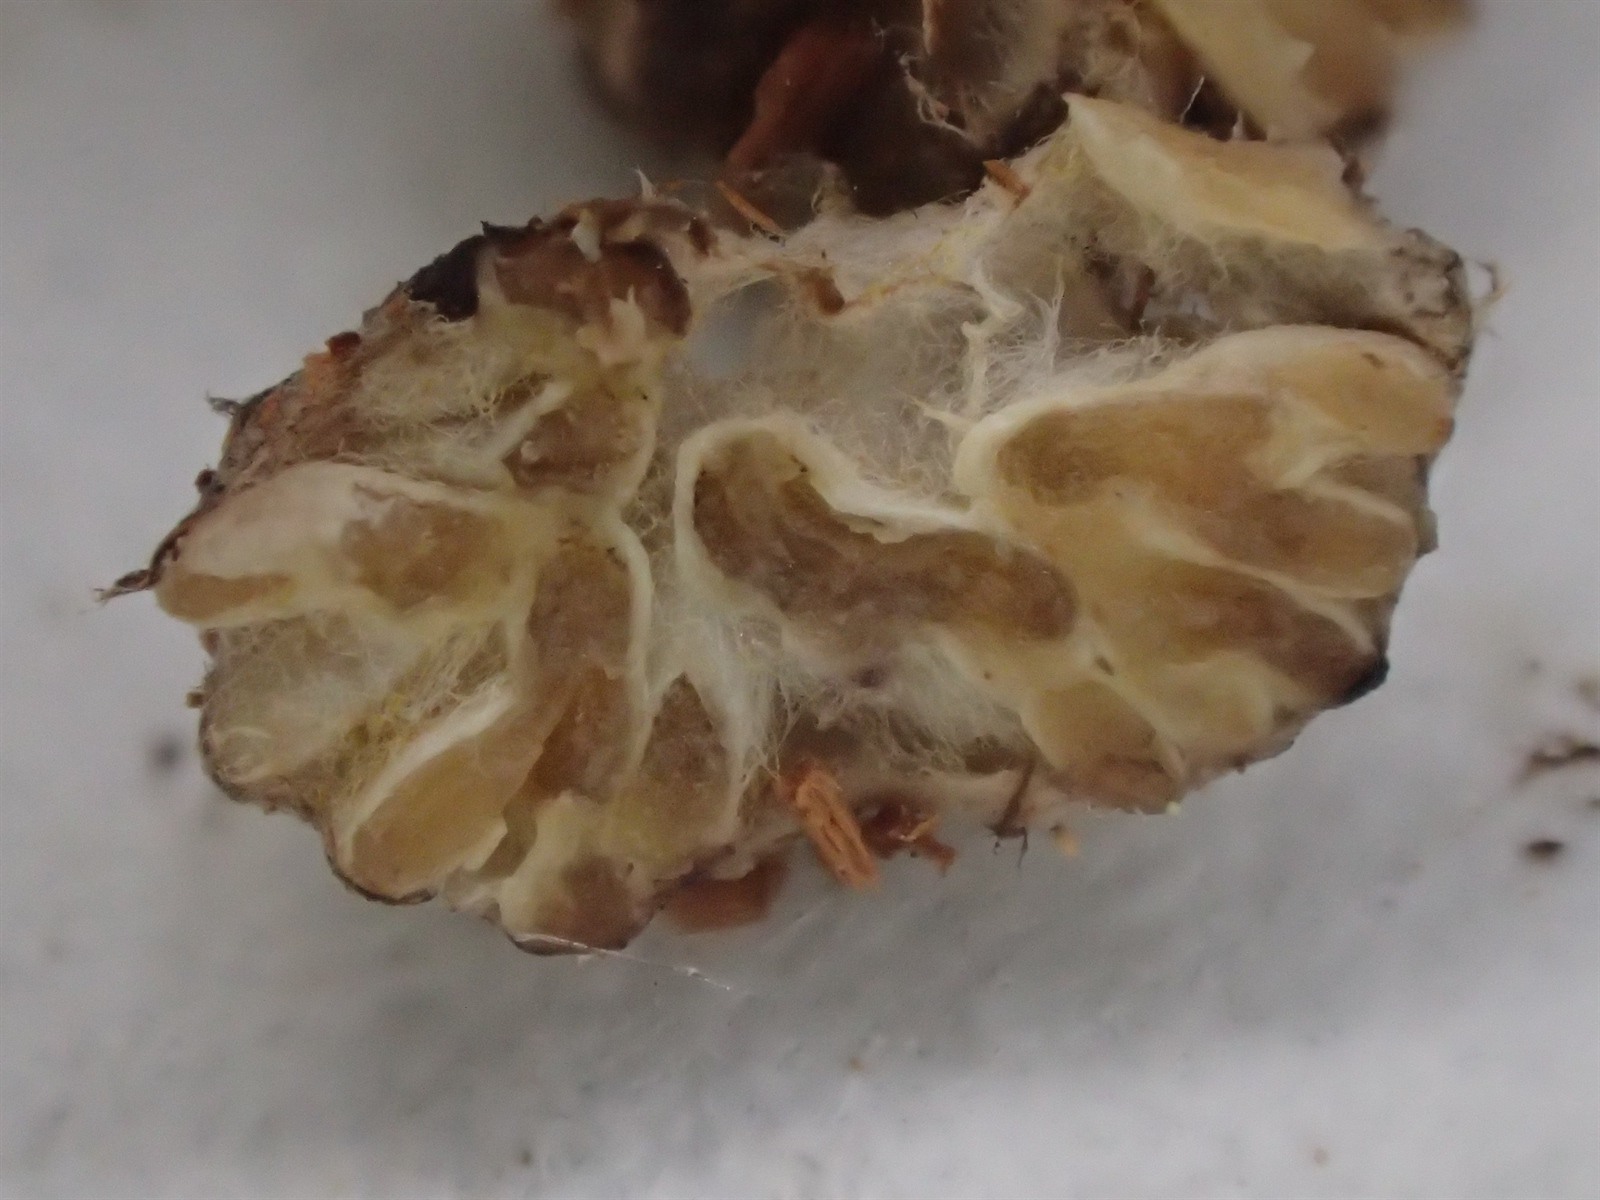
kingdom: Fungi
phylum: Glomeromycota
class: Glomeromycetes
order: Glomerales
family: Glomeraceae
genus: Glomus
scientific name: Glomus
